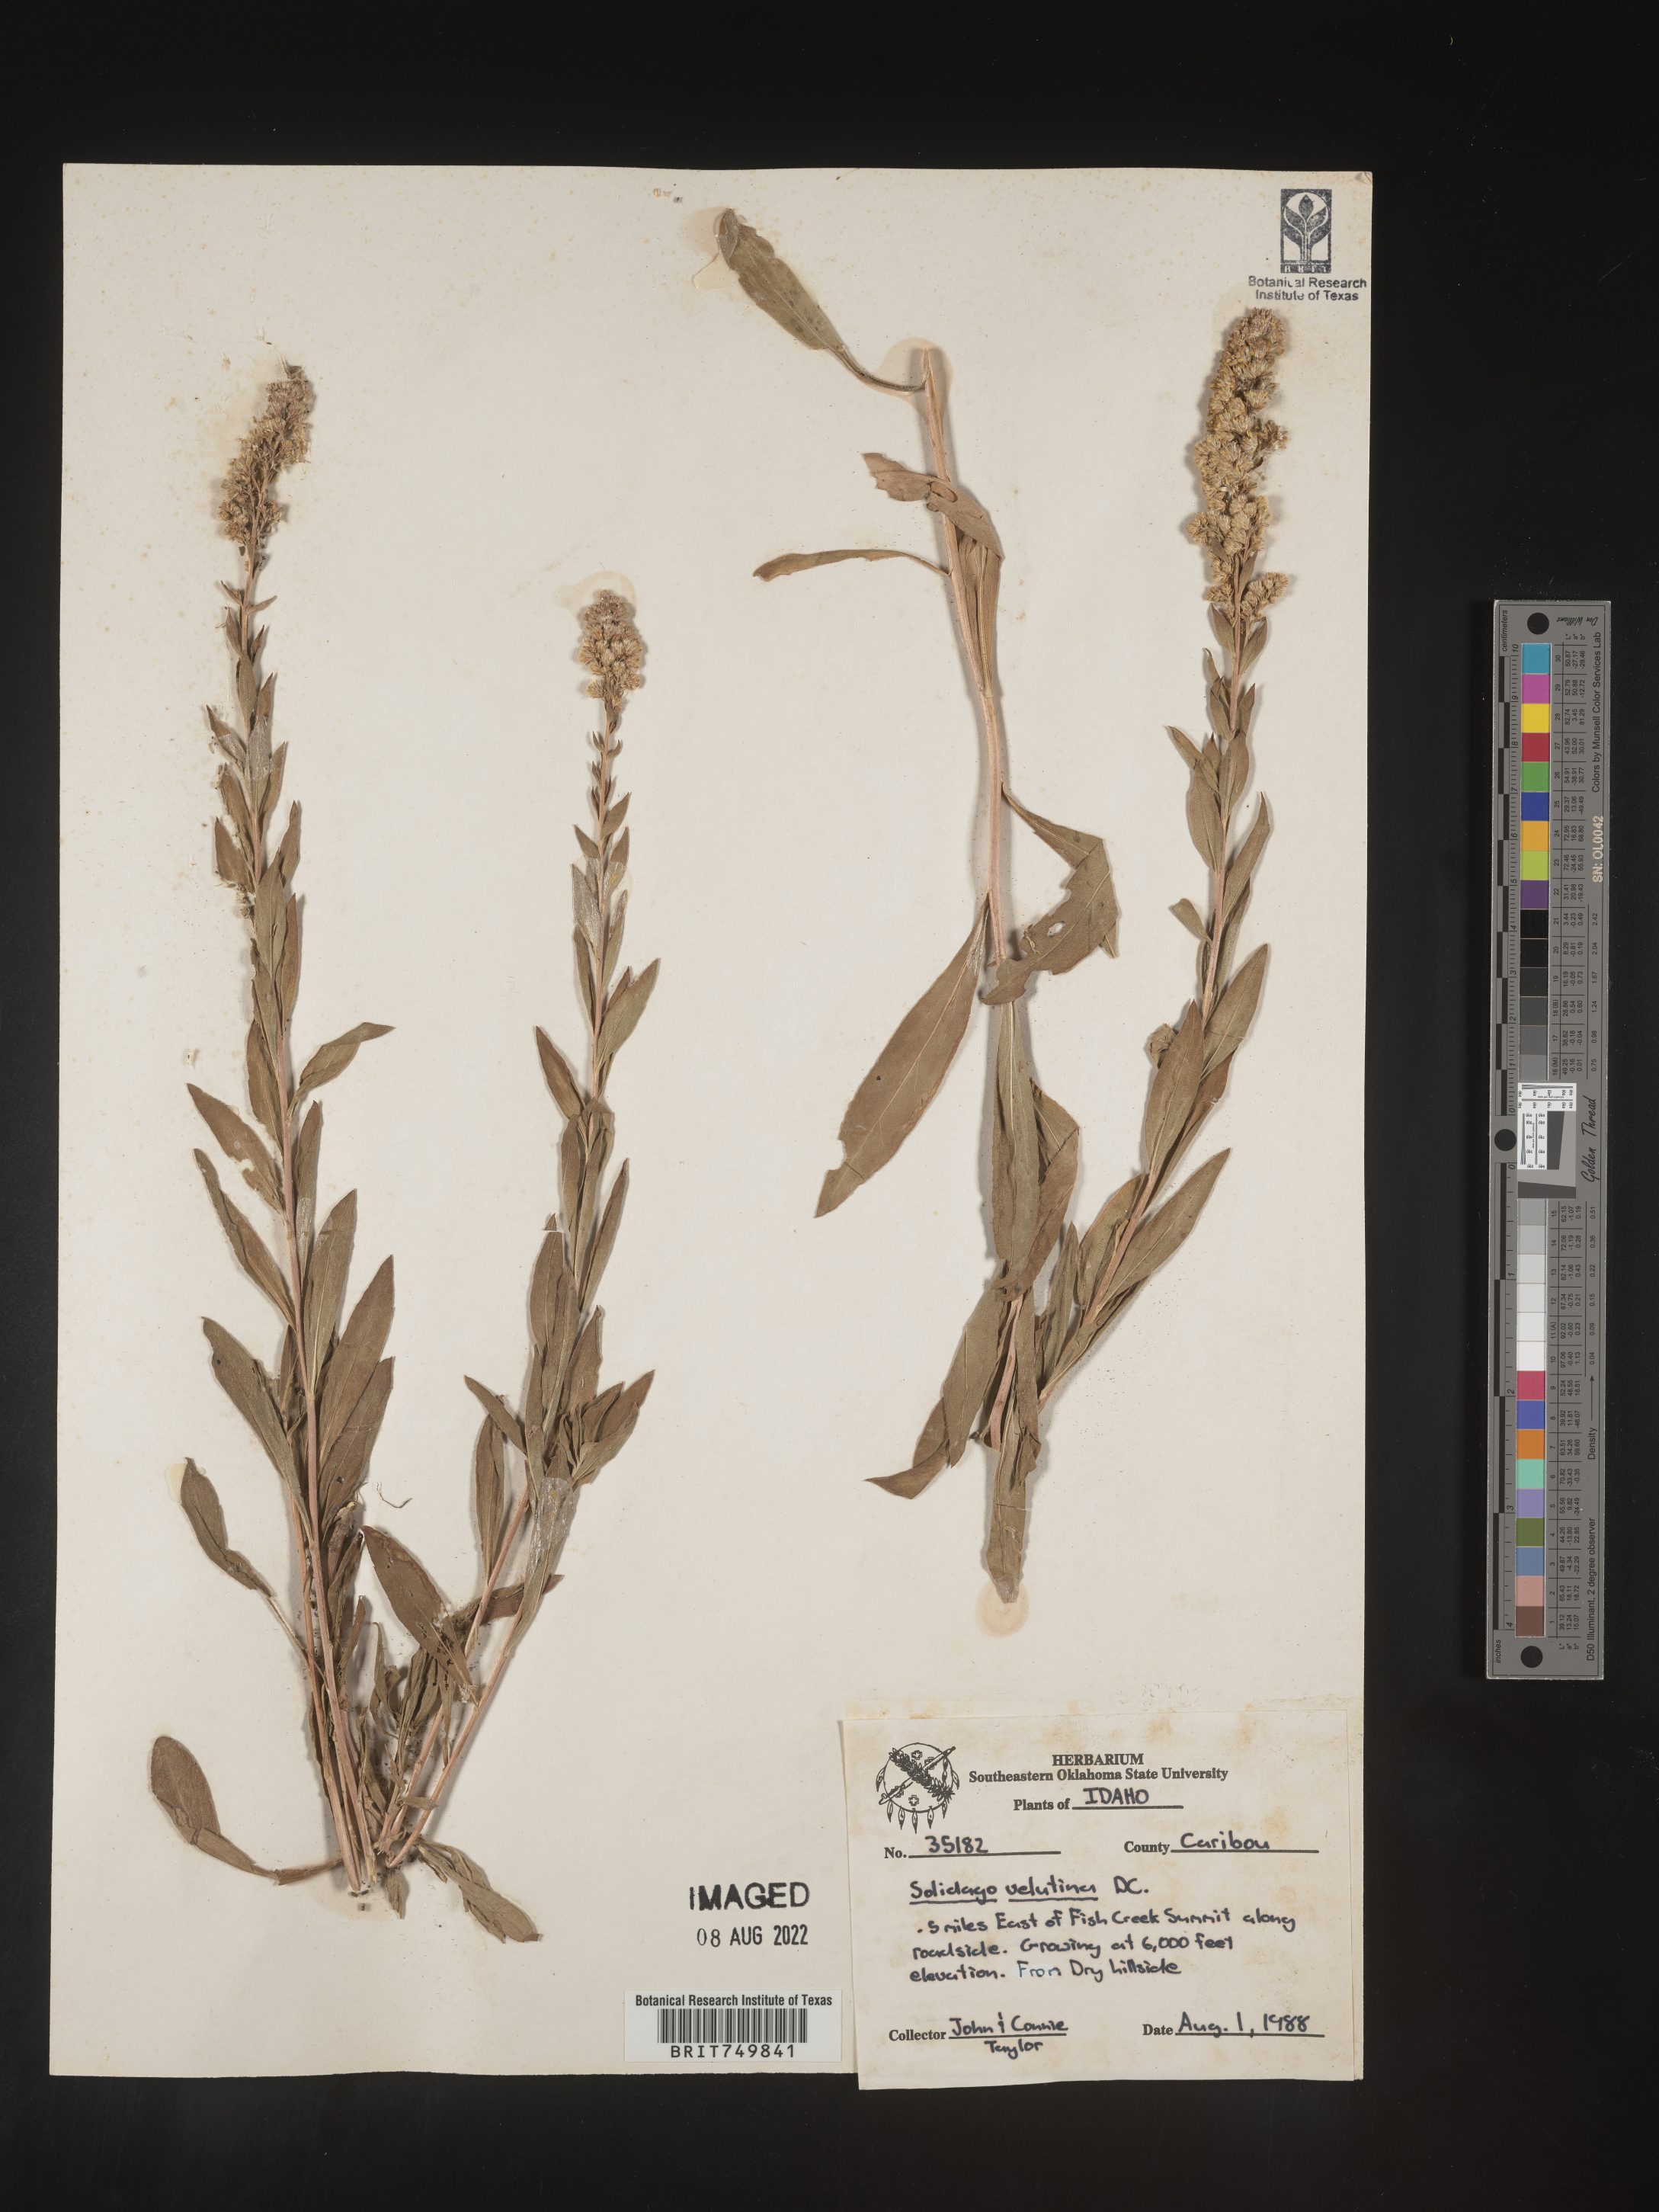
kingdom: Plantae
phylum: Tracheophyta
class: Magnoliopsida
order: Asterales
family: Asteraceae
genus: Solidago
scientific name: Solidago velutina
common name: Three-nerve goldenrod
